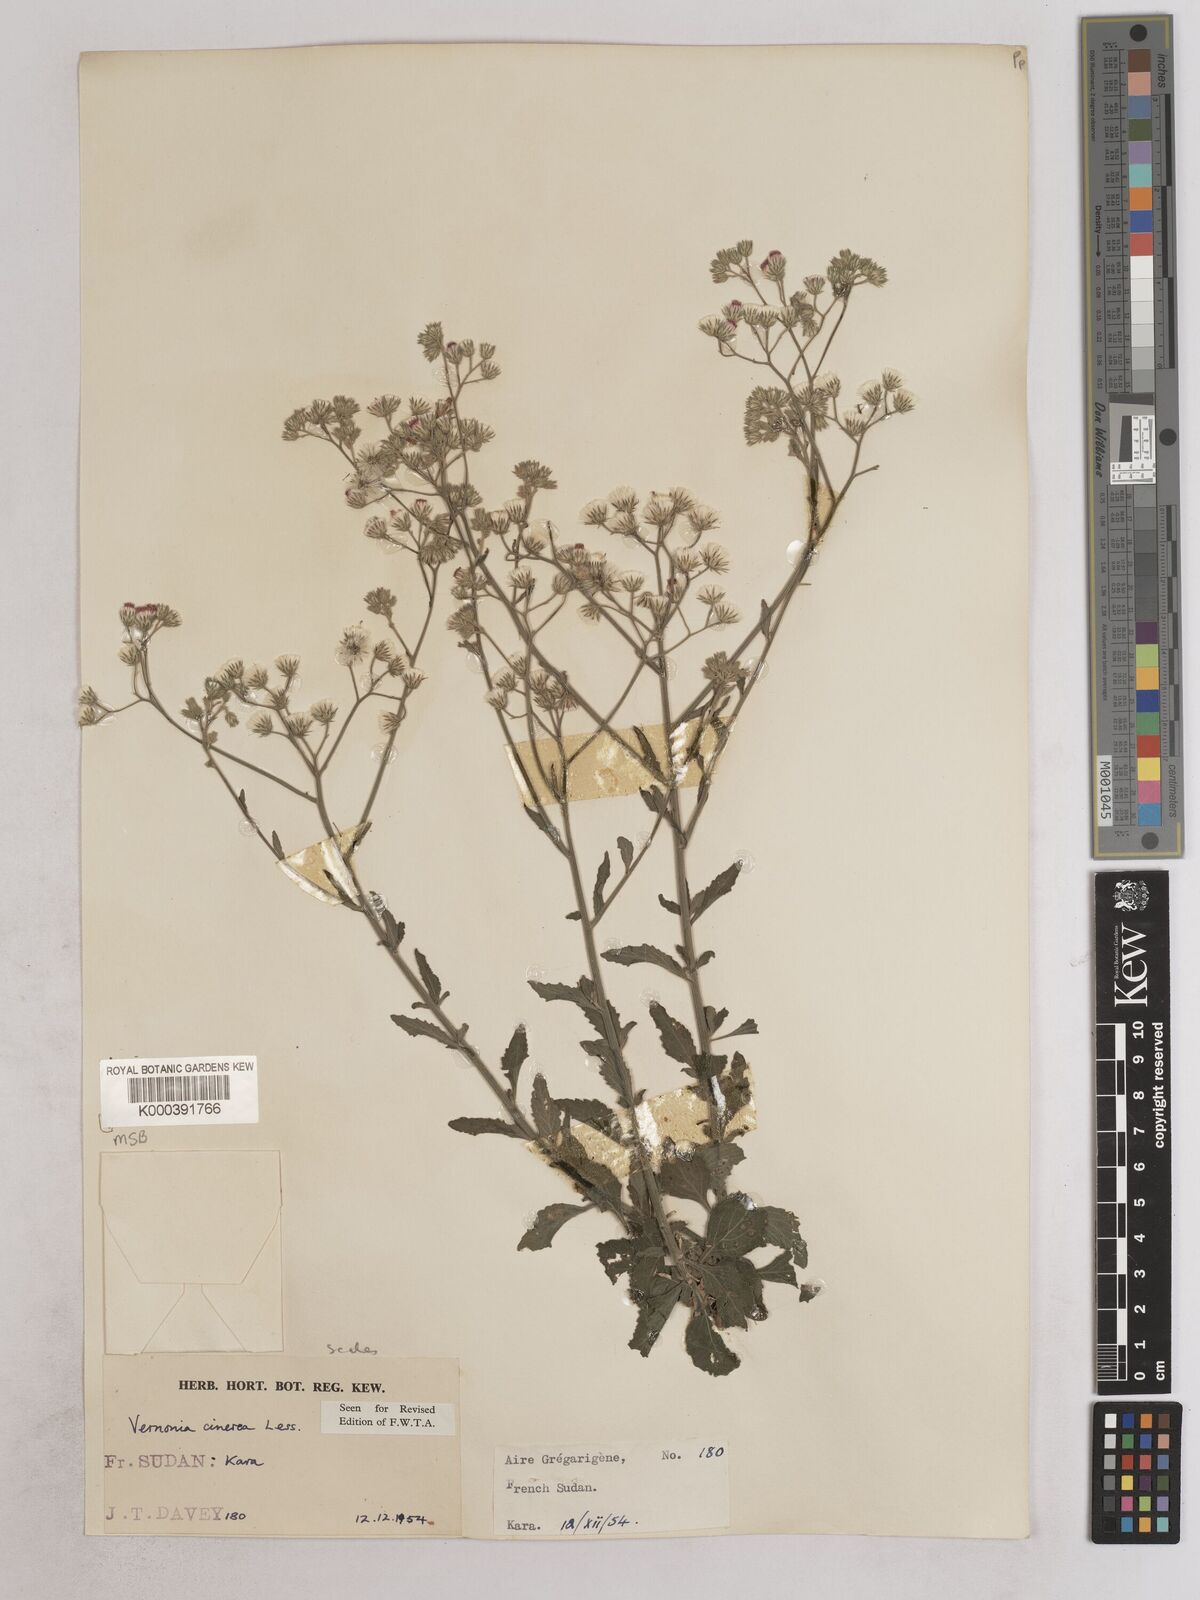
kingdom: Plantae
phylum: Tracheophyta
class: Magnoliopsida
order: Asterales
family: Asteraceae
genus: Cyanthillium
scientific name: Cyanthillium cinereum
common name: Little ironweed
